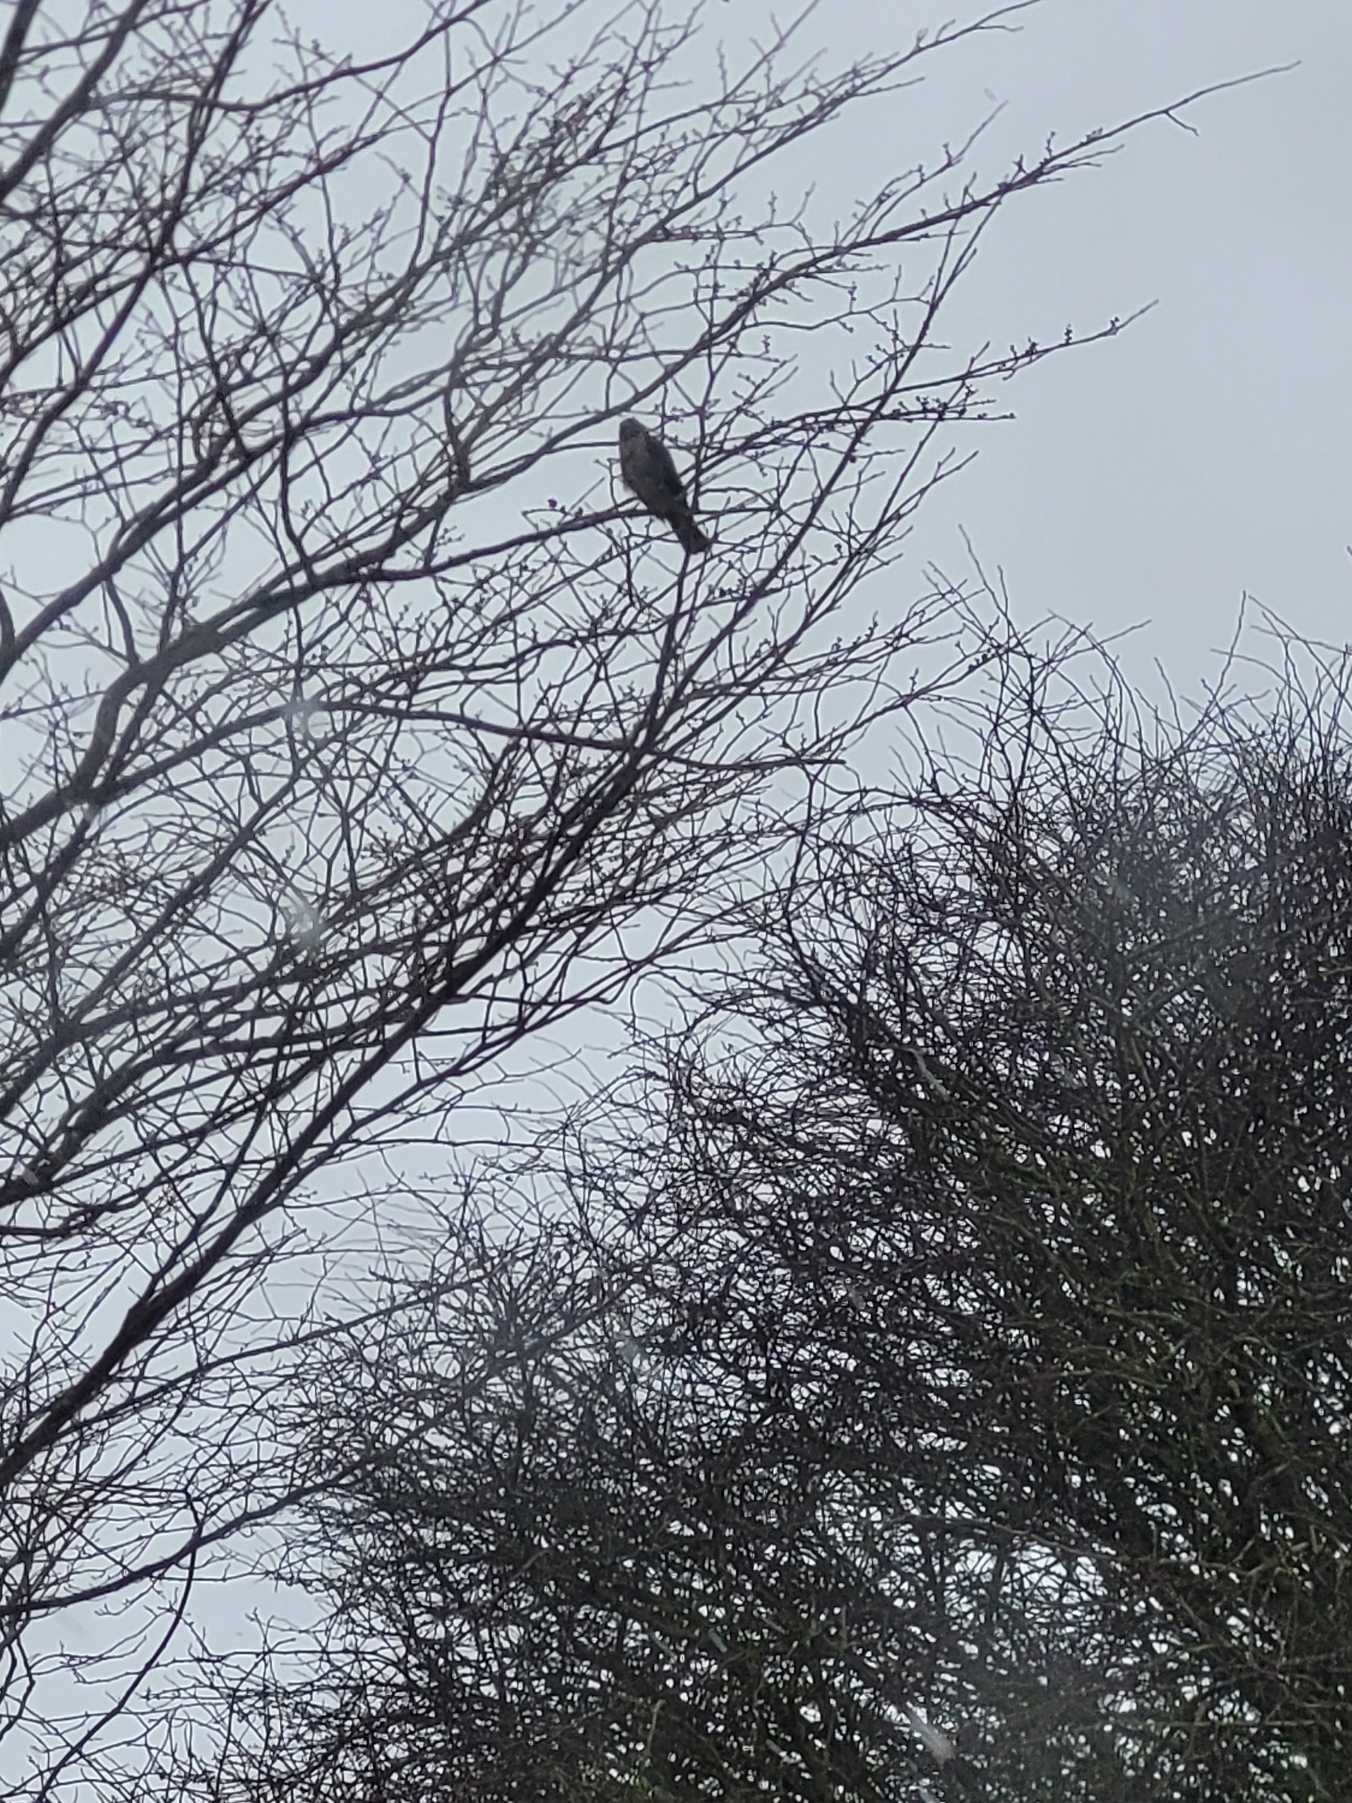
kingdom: Animalia
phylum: Chordata
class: Aves
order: Accipitriformes
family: Accipitridae
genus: Accipiter
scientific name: Accipiter nisus
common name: Spurvehøg
